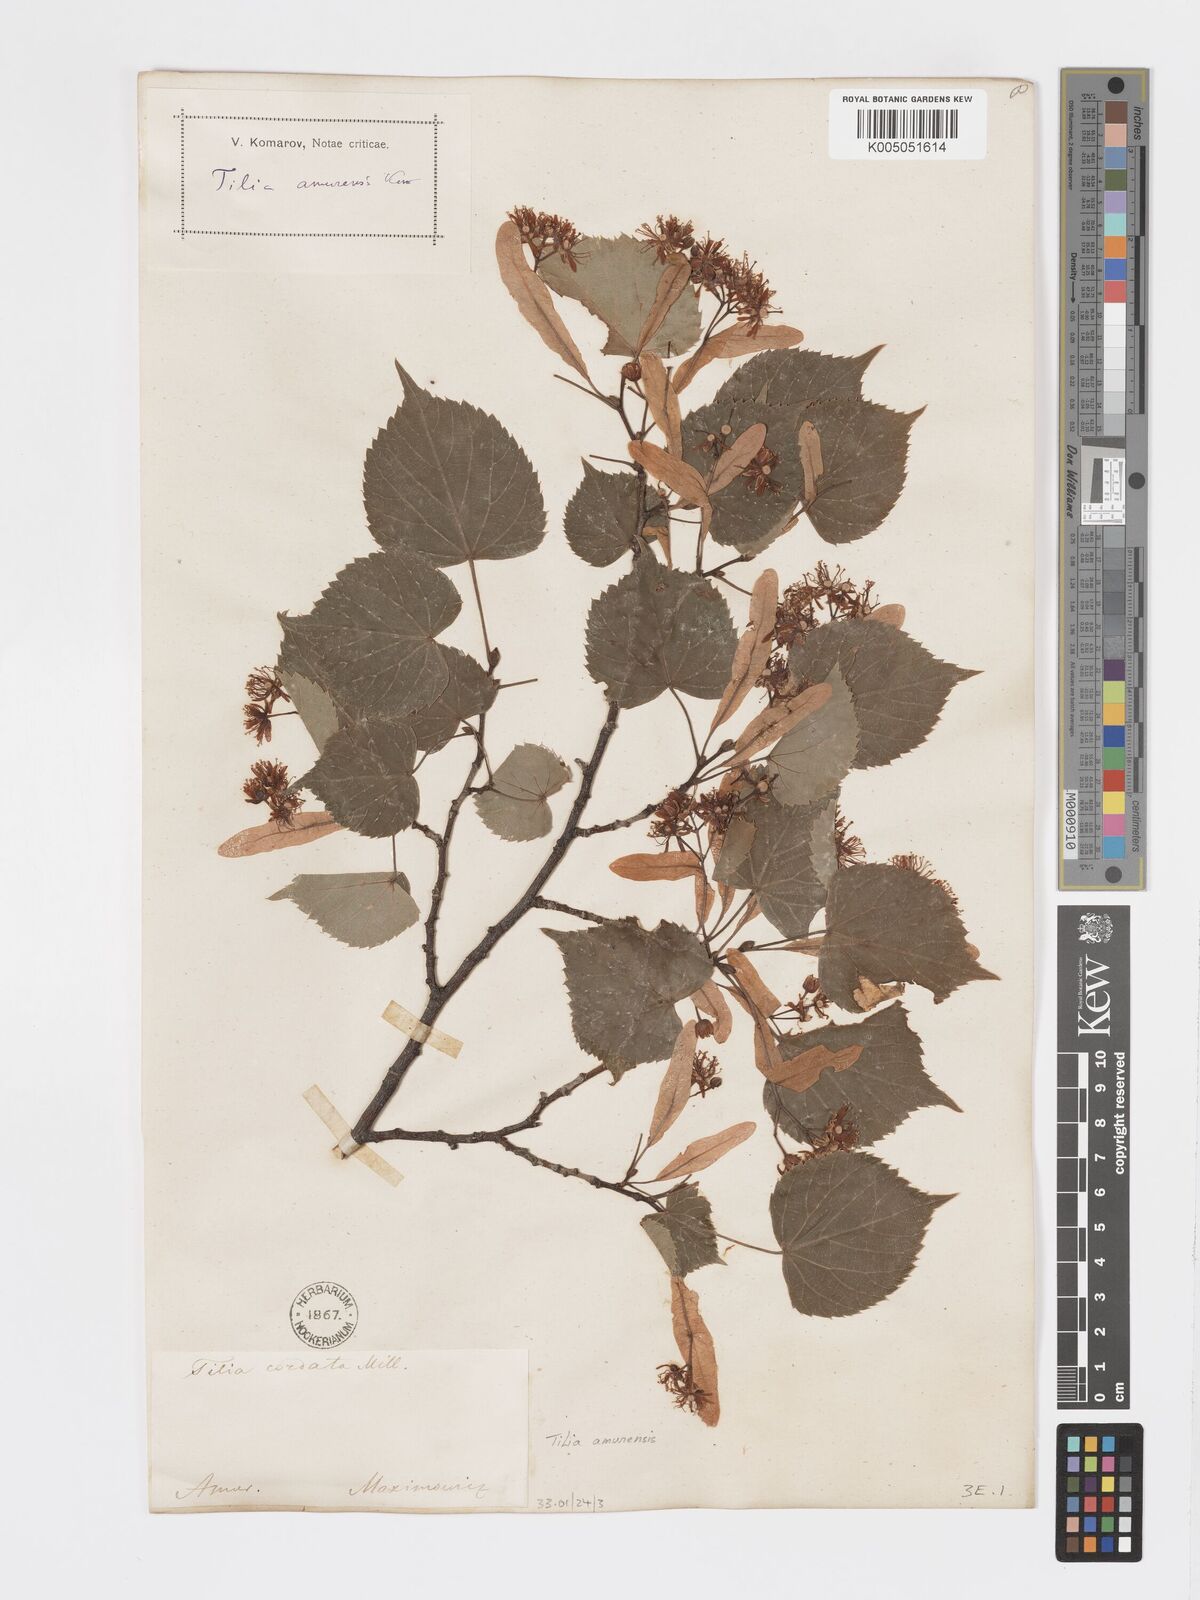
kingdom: Plantae
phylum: Tracheophyta
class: Magnoliopsida
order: Malvales
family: Malvaceae
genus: Tilia
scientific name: Tilia
